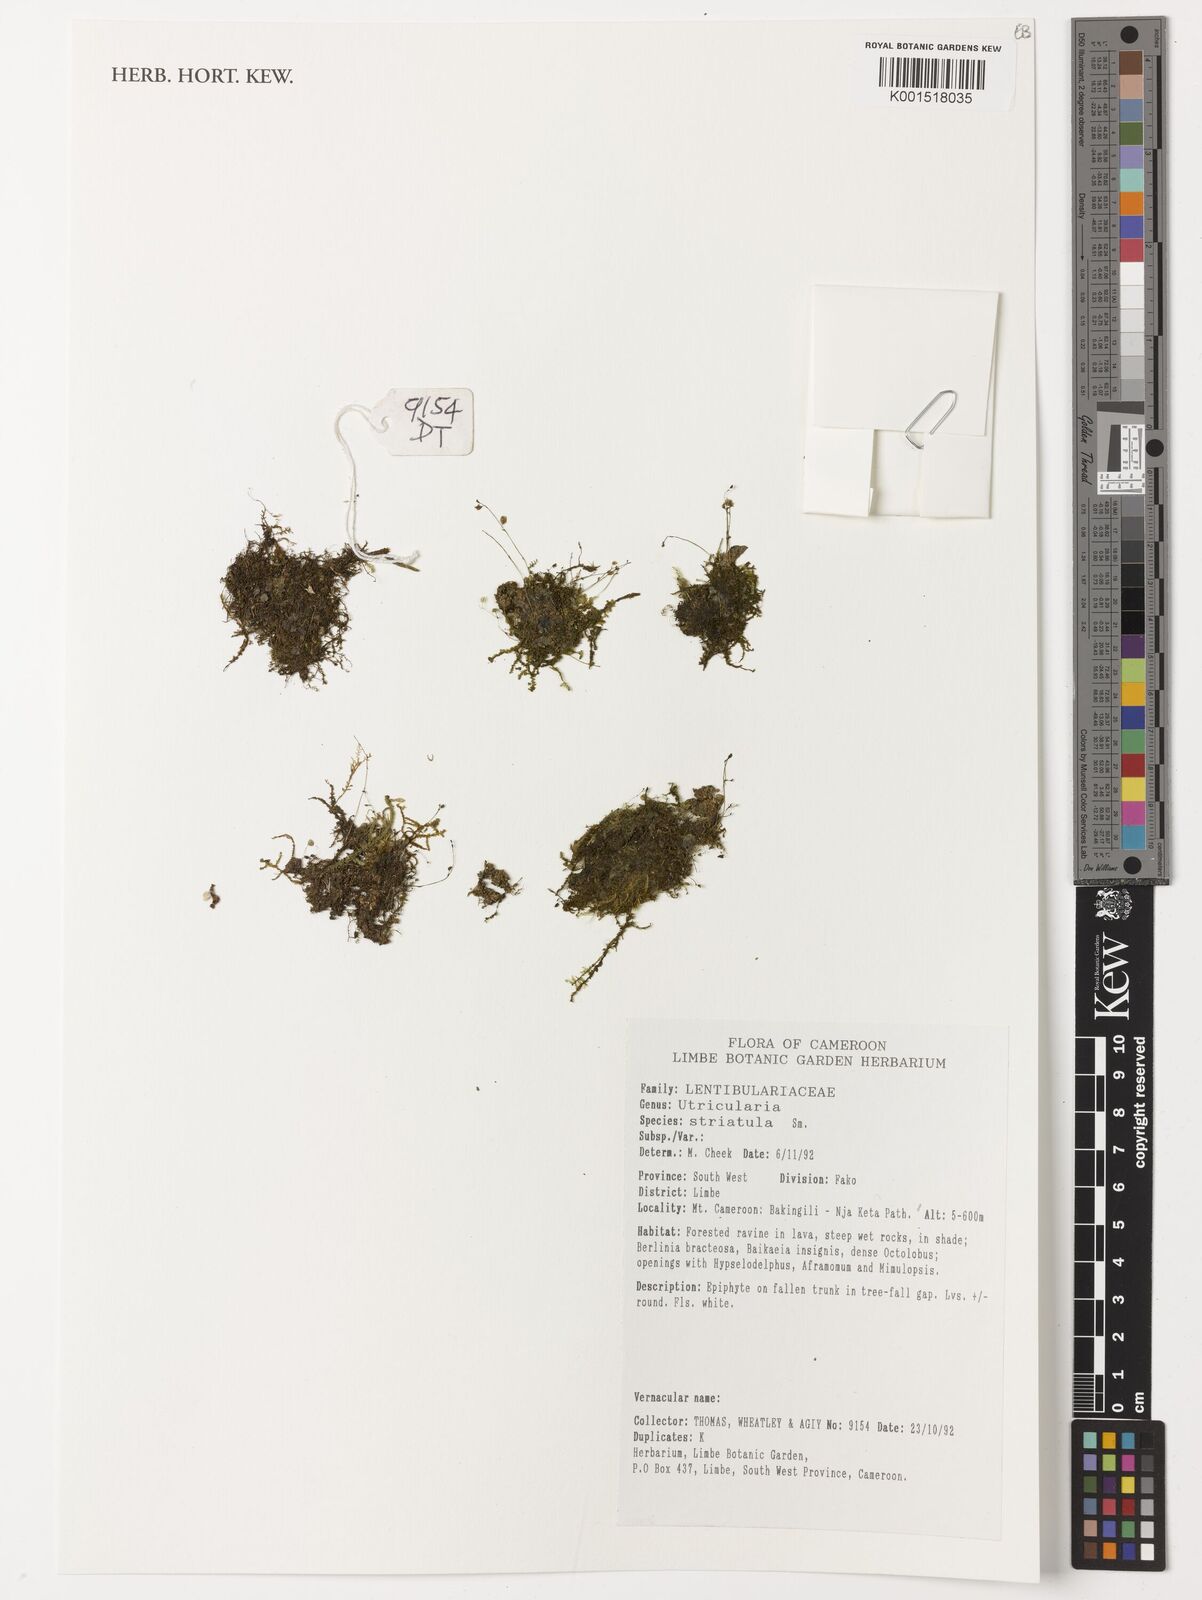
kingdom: Plantae
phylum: Tracheophyta
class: Magnoliopsida
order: Lamiales
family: Lentibulariaceae
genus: Utricularia
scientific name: Utricularia striatula
